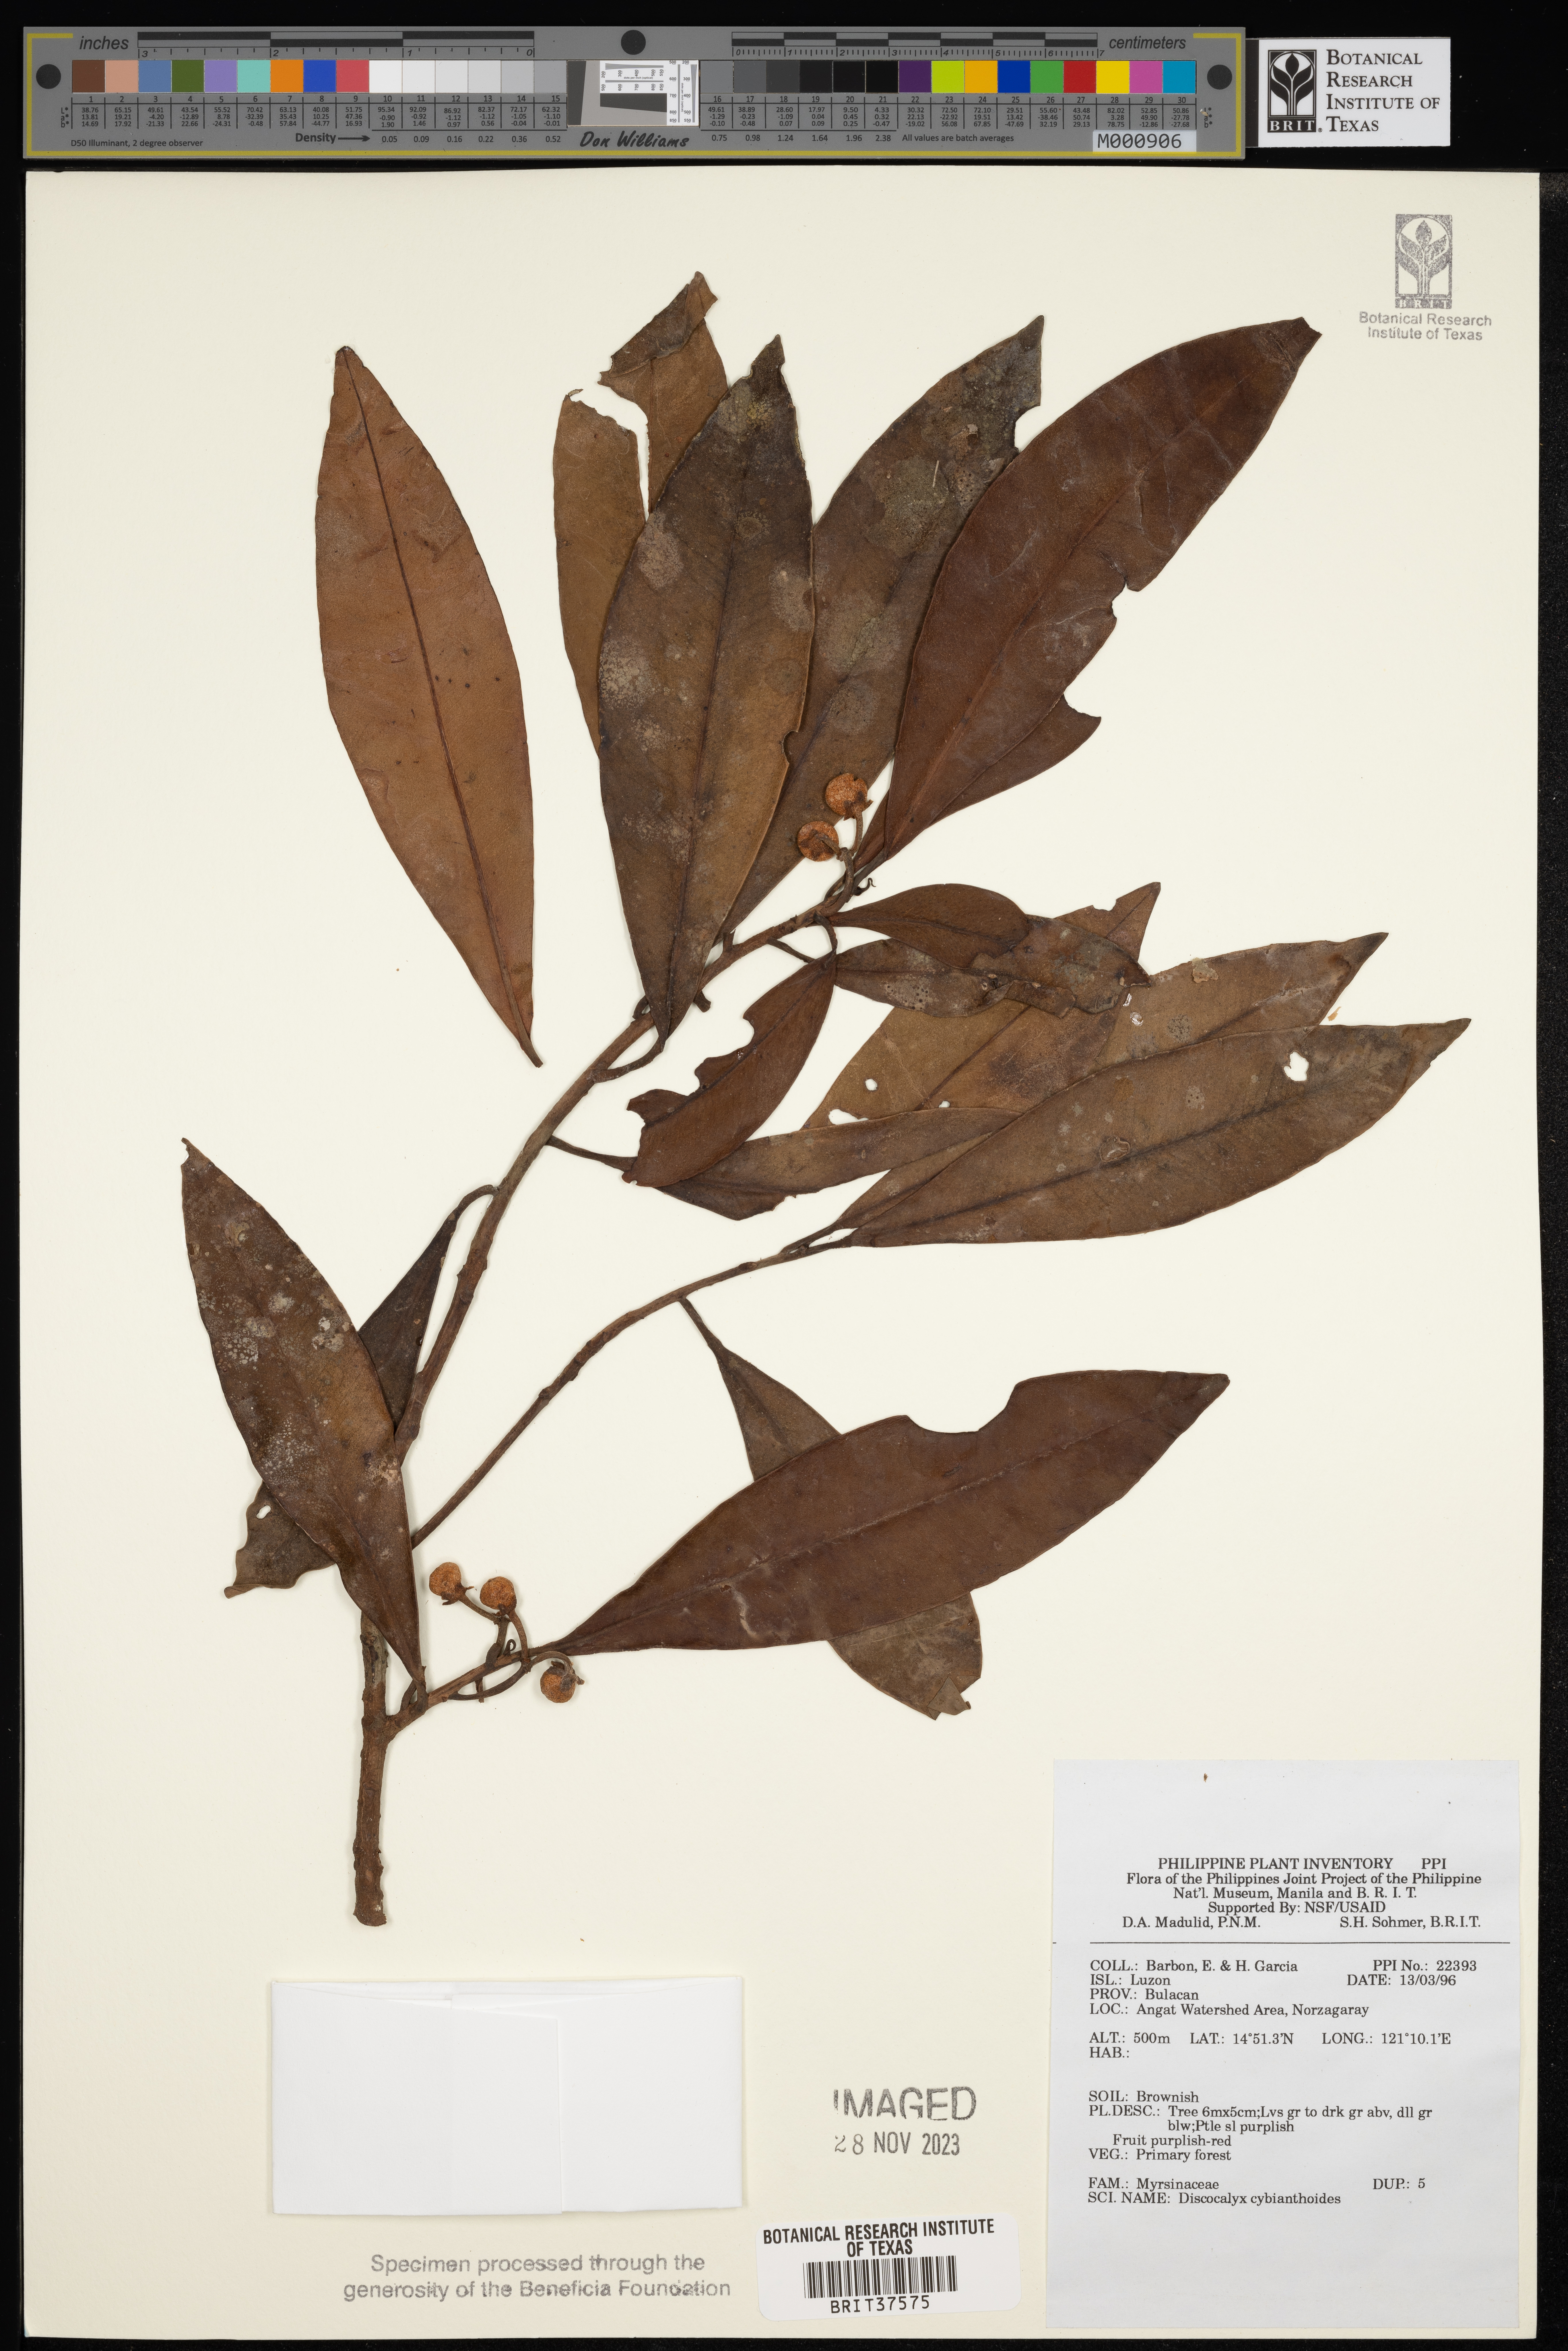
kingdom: Plantae
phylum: Tracheophyta
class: Magnoliopsida
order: Ericales
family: Primulaceae
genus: Discocalyx
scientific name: Discocalyx cybianthoides
